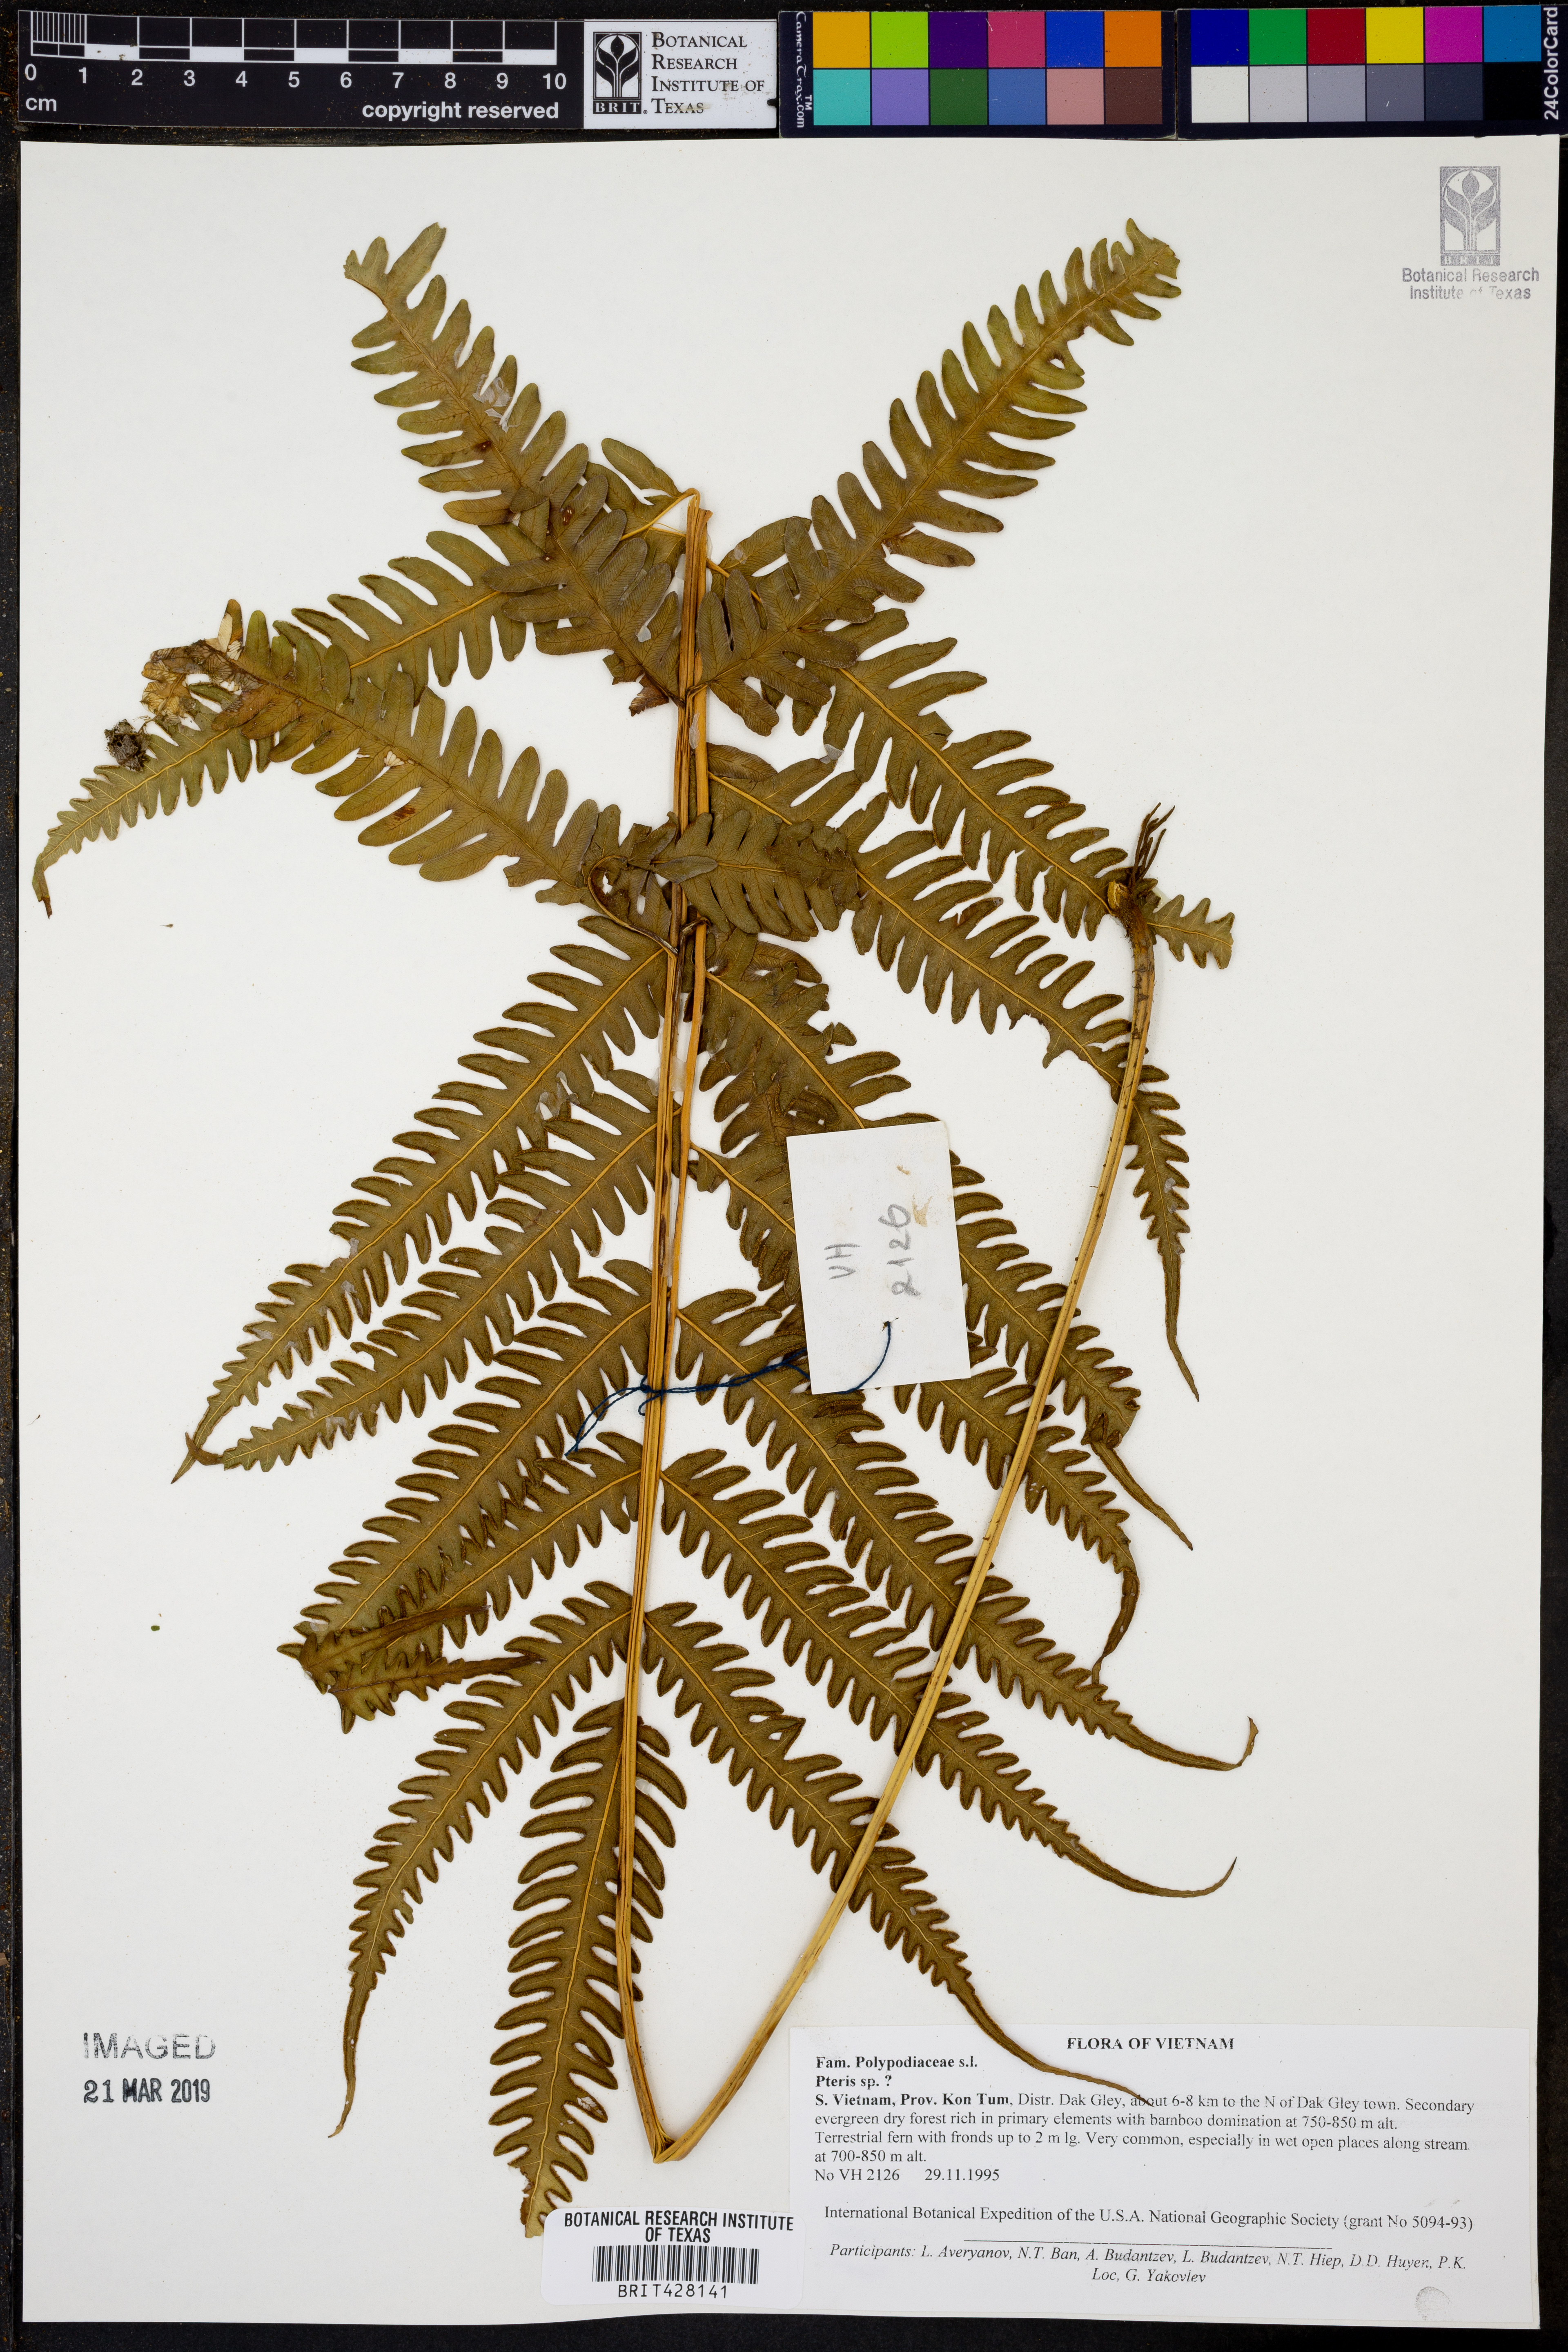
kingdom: Plantae
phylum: Tracheophyta
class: Polypodiopsida
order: Polypodiales
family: Pteridaceae
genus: Pteris
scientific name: Pteris
